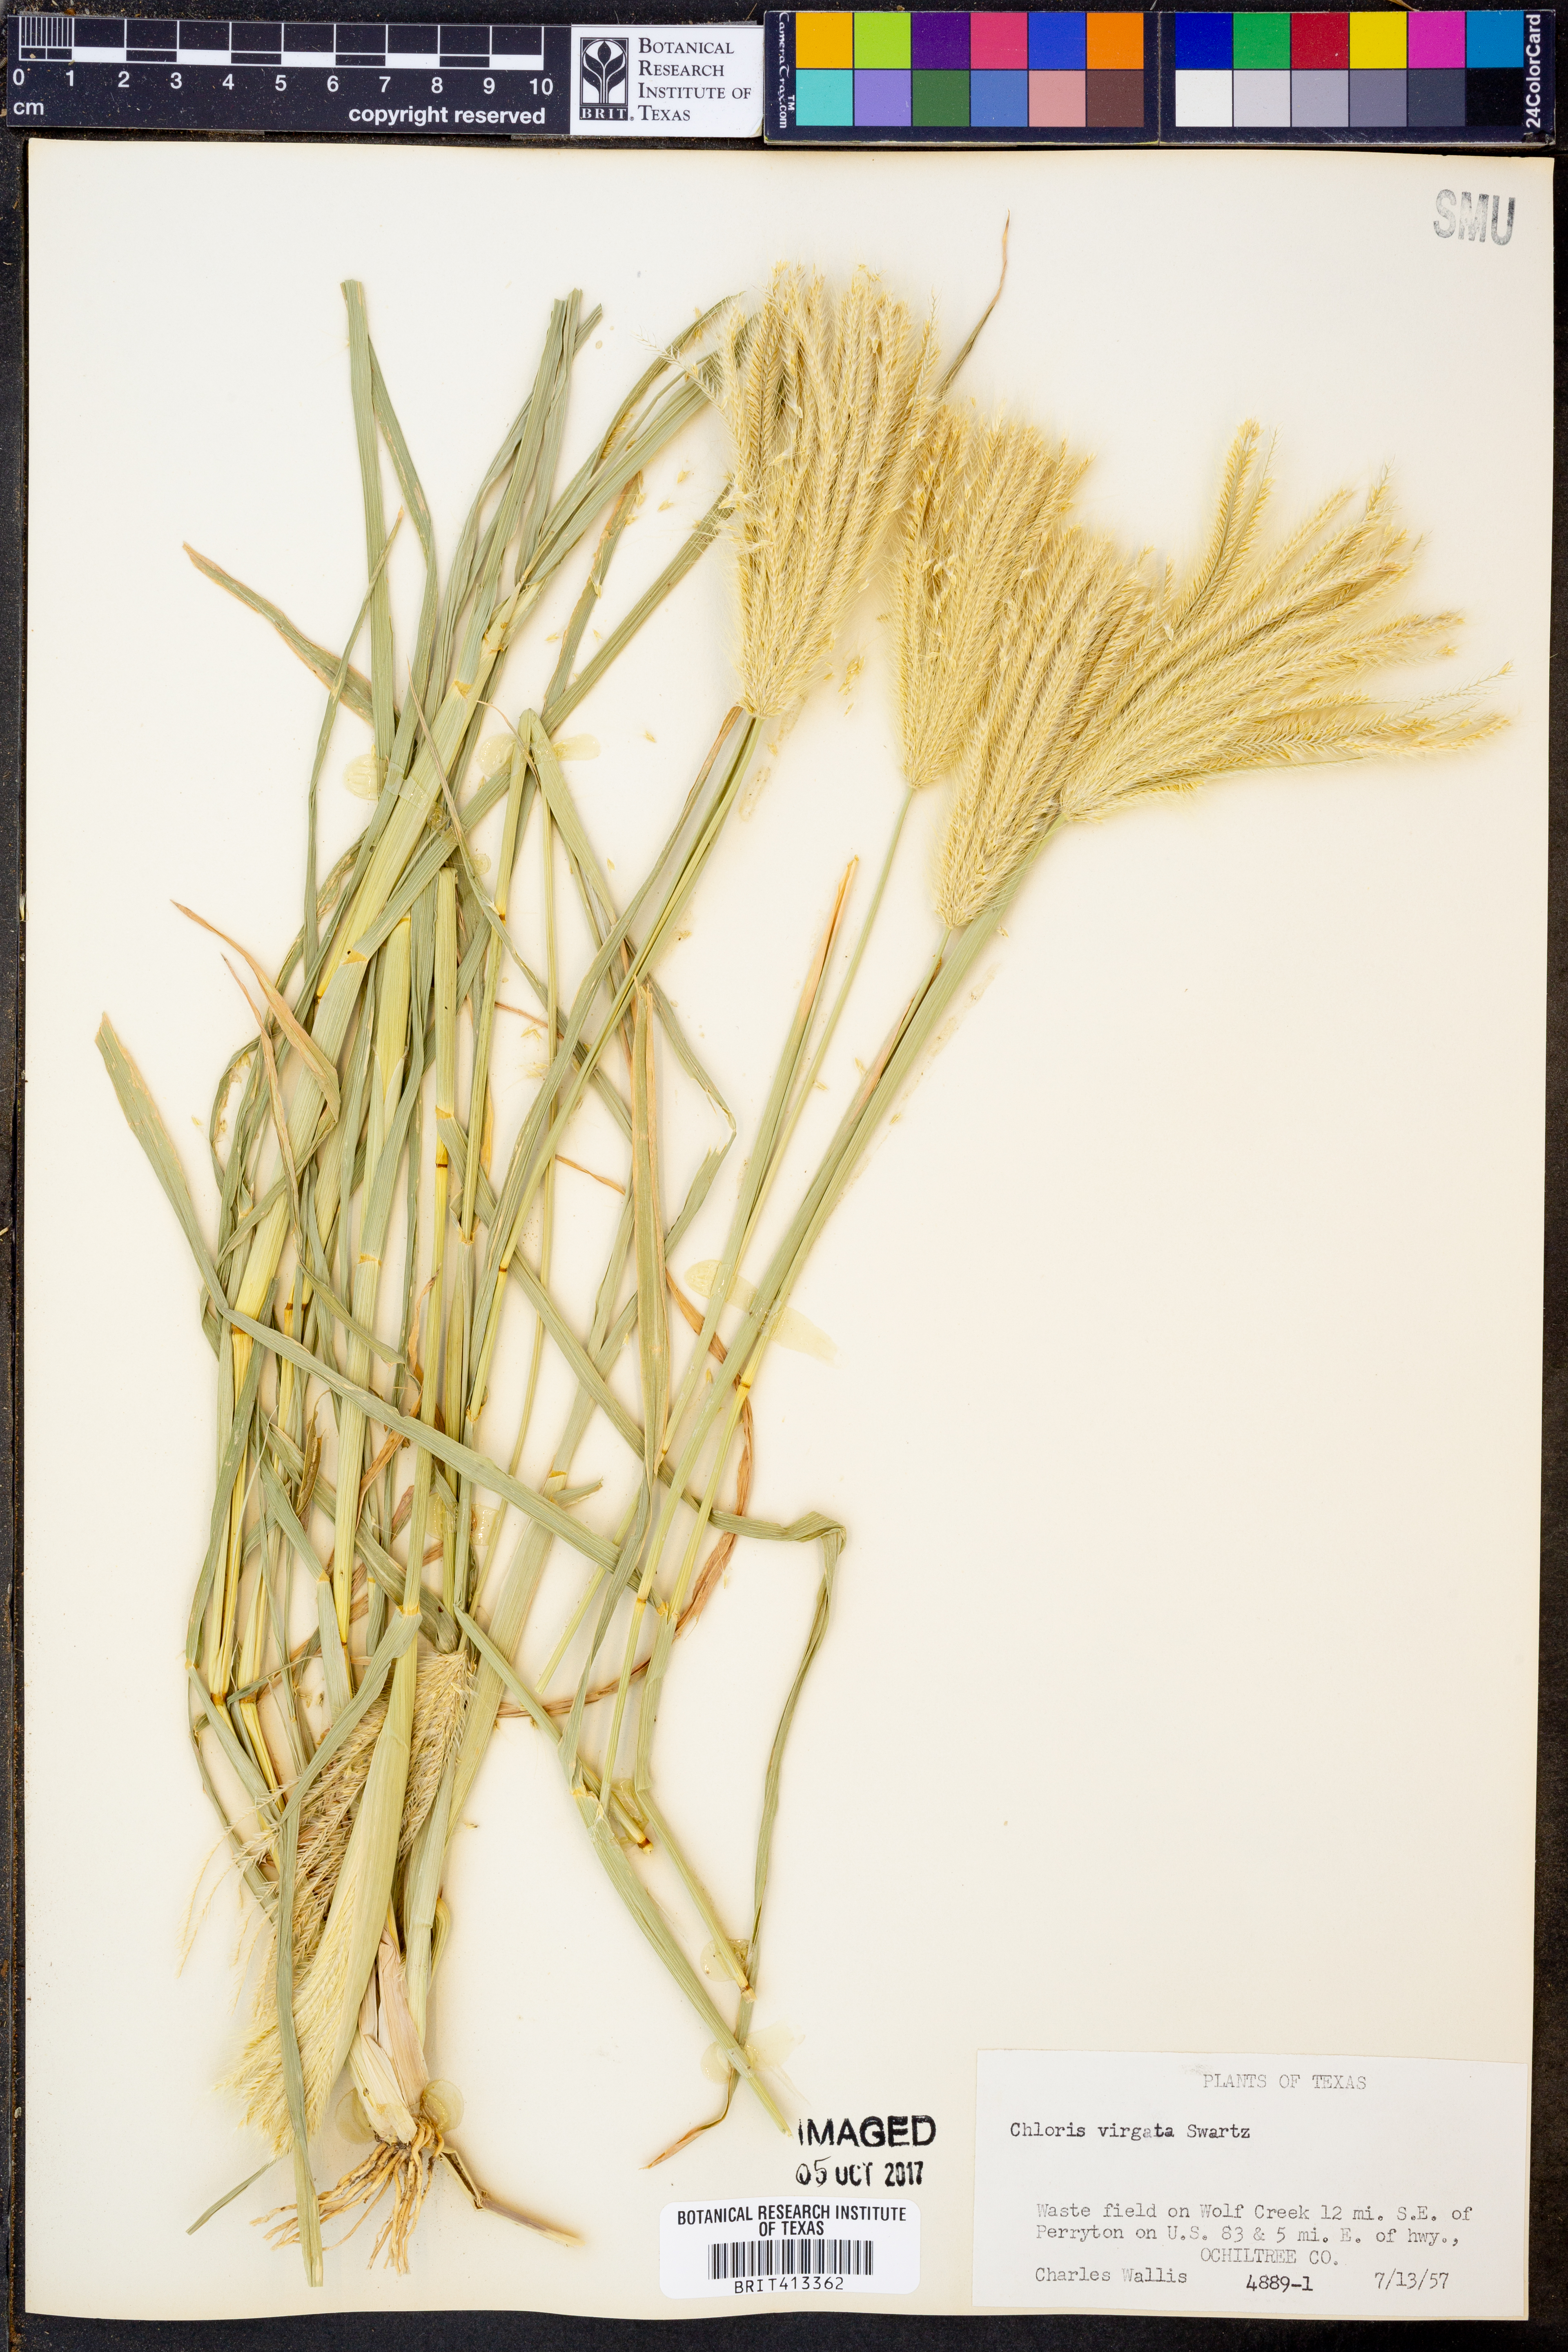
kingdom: Plantae
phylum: Tracheophyta
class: Liliopsida
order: Poales
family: Poaceae
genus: Chloris
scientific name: Chloris virgata
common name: Feathery rhodes-grass
